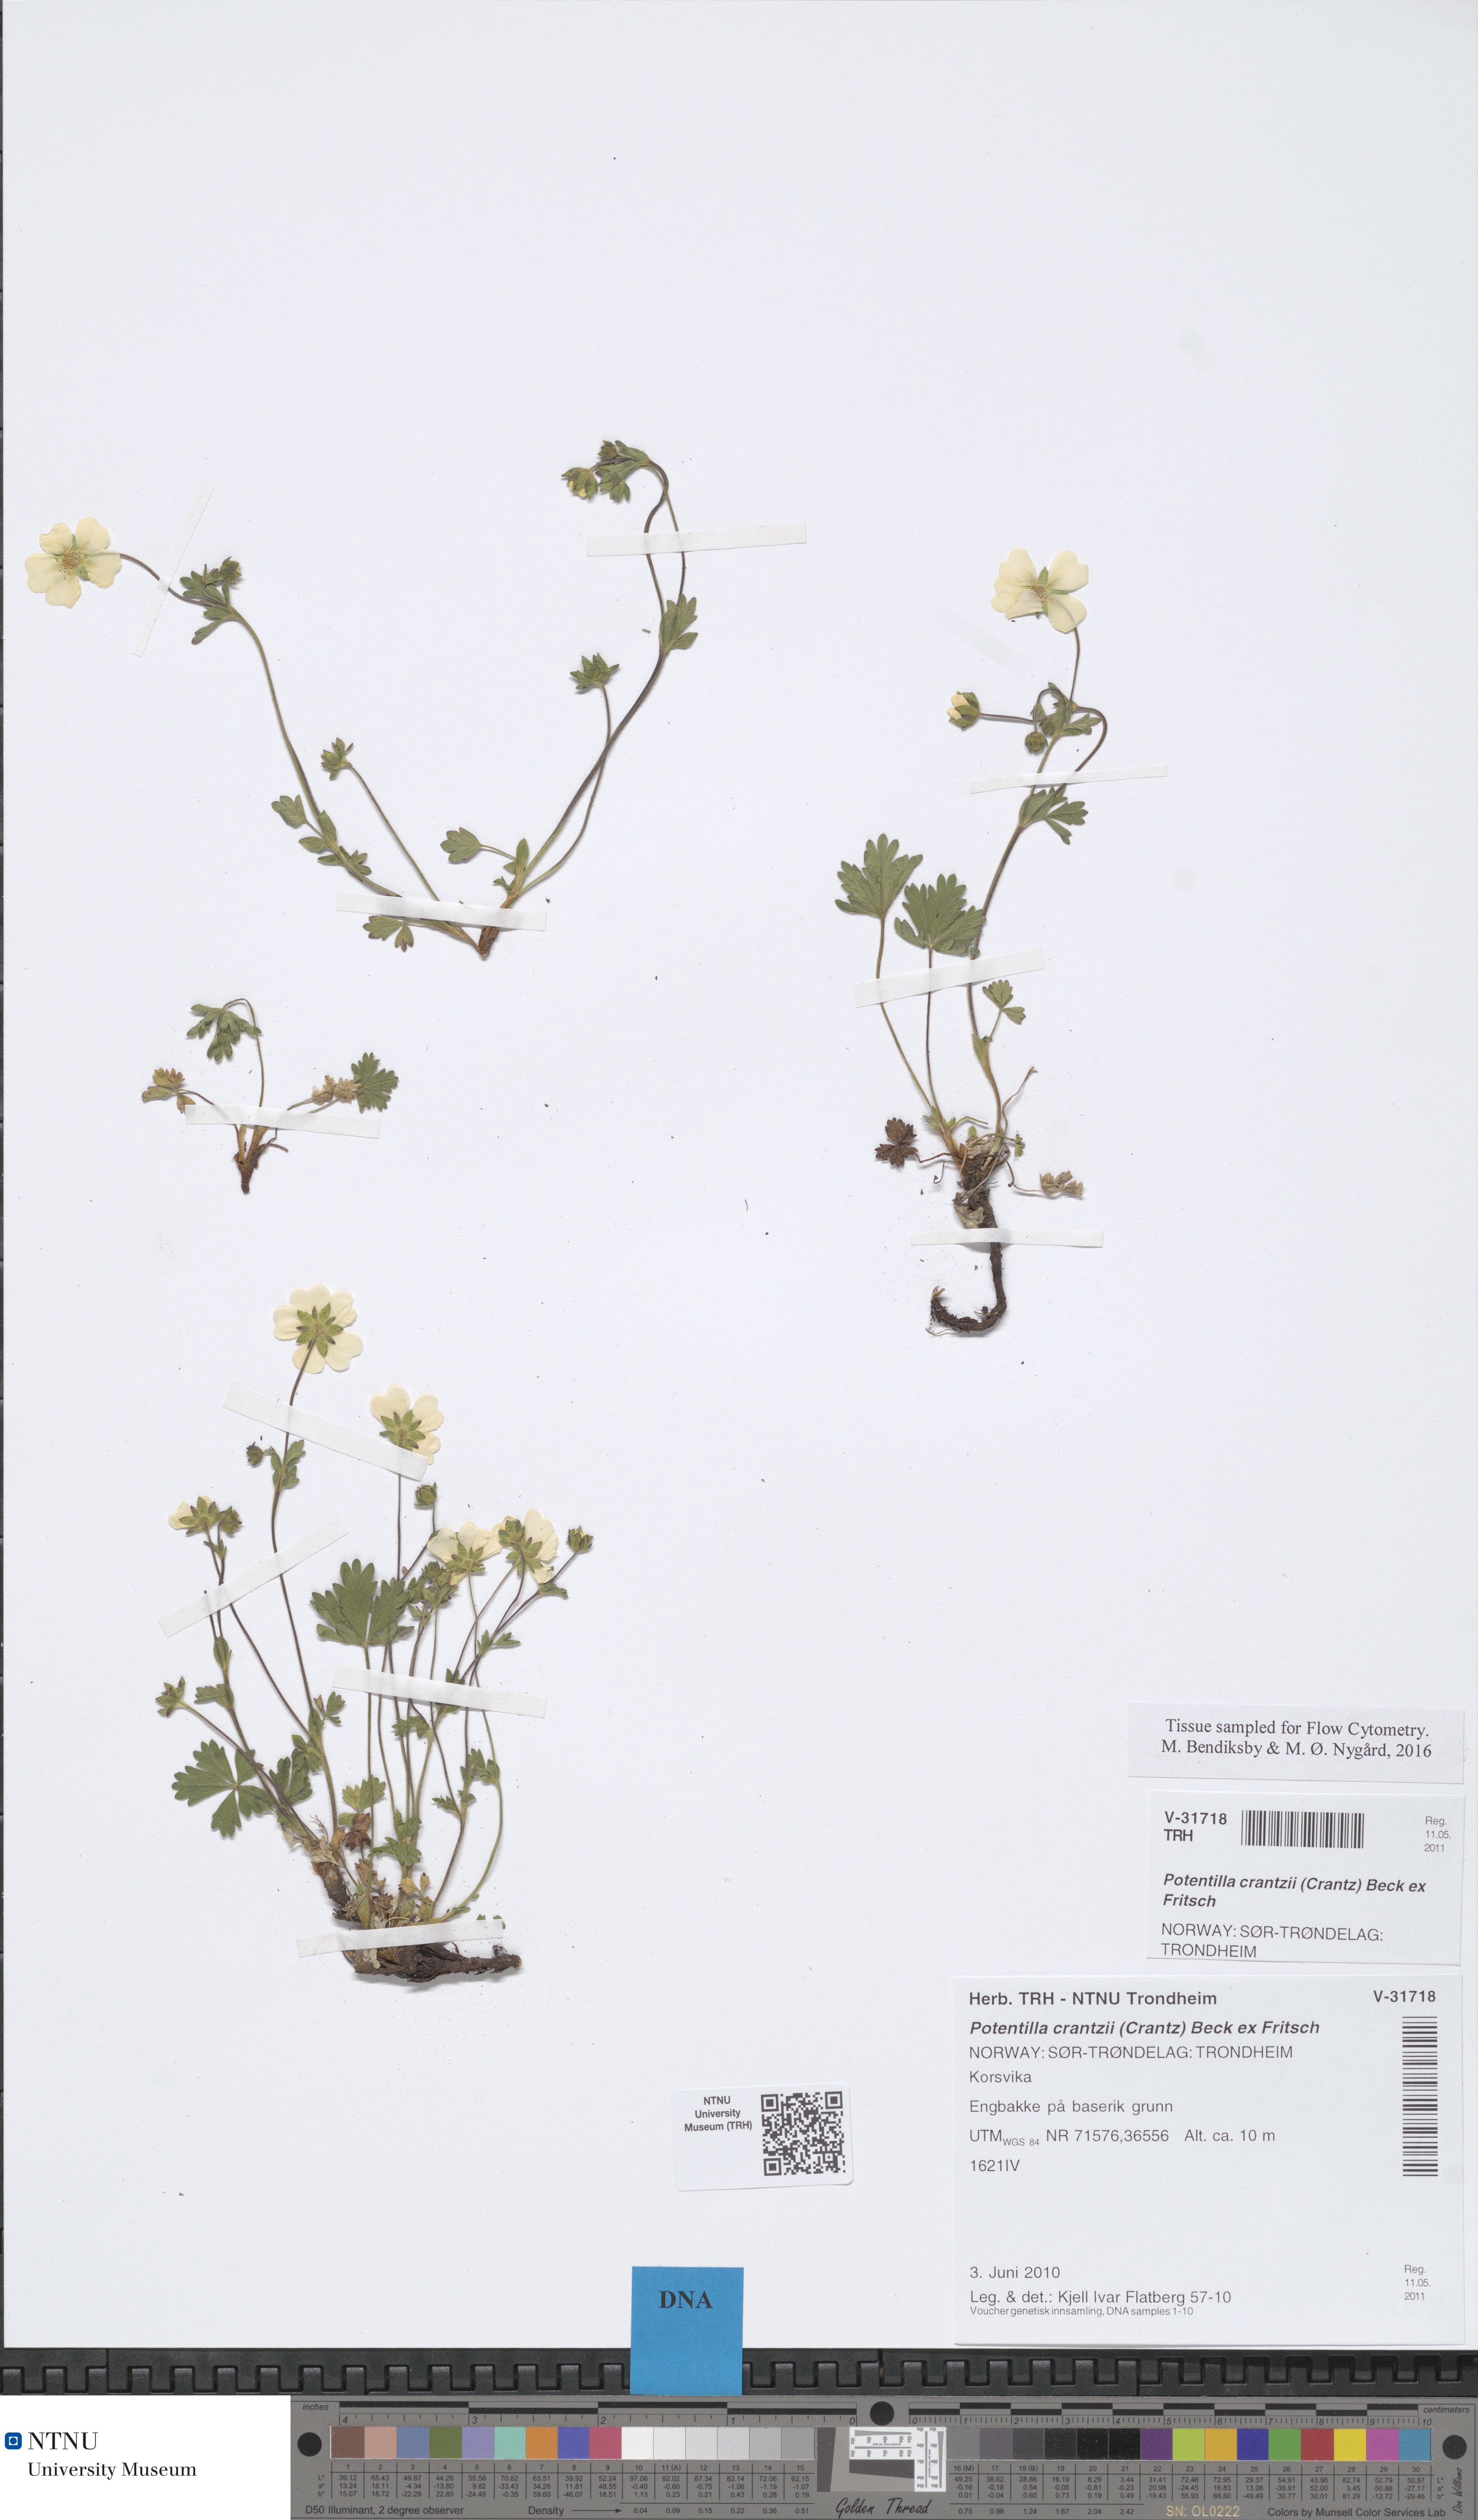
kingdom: Plantae
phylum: Tracheophyta
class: Magnoliopsida
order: Rosales
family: Rosaceae
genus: Potentilla
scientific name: Potentilla crantzii
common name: Alpine cinquefoil
